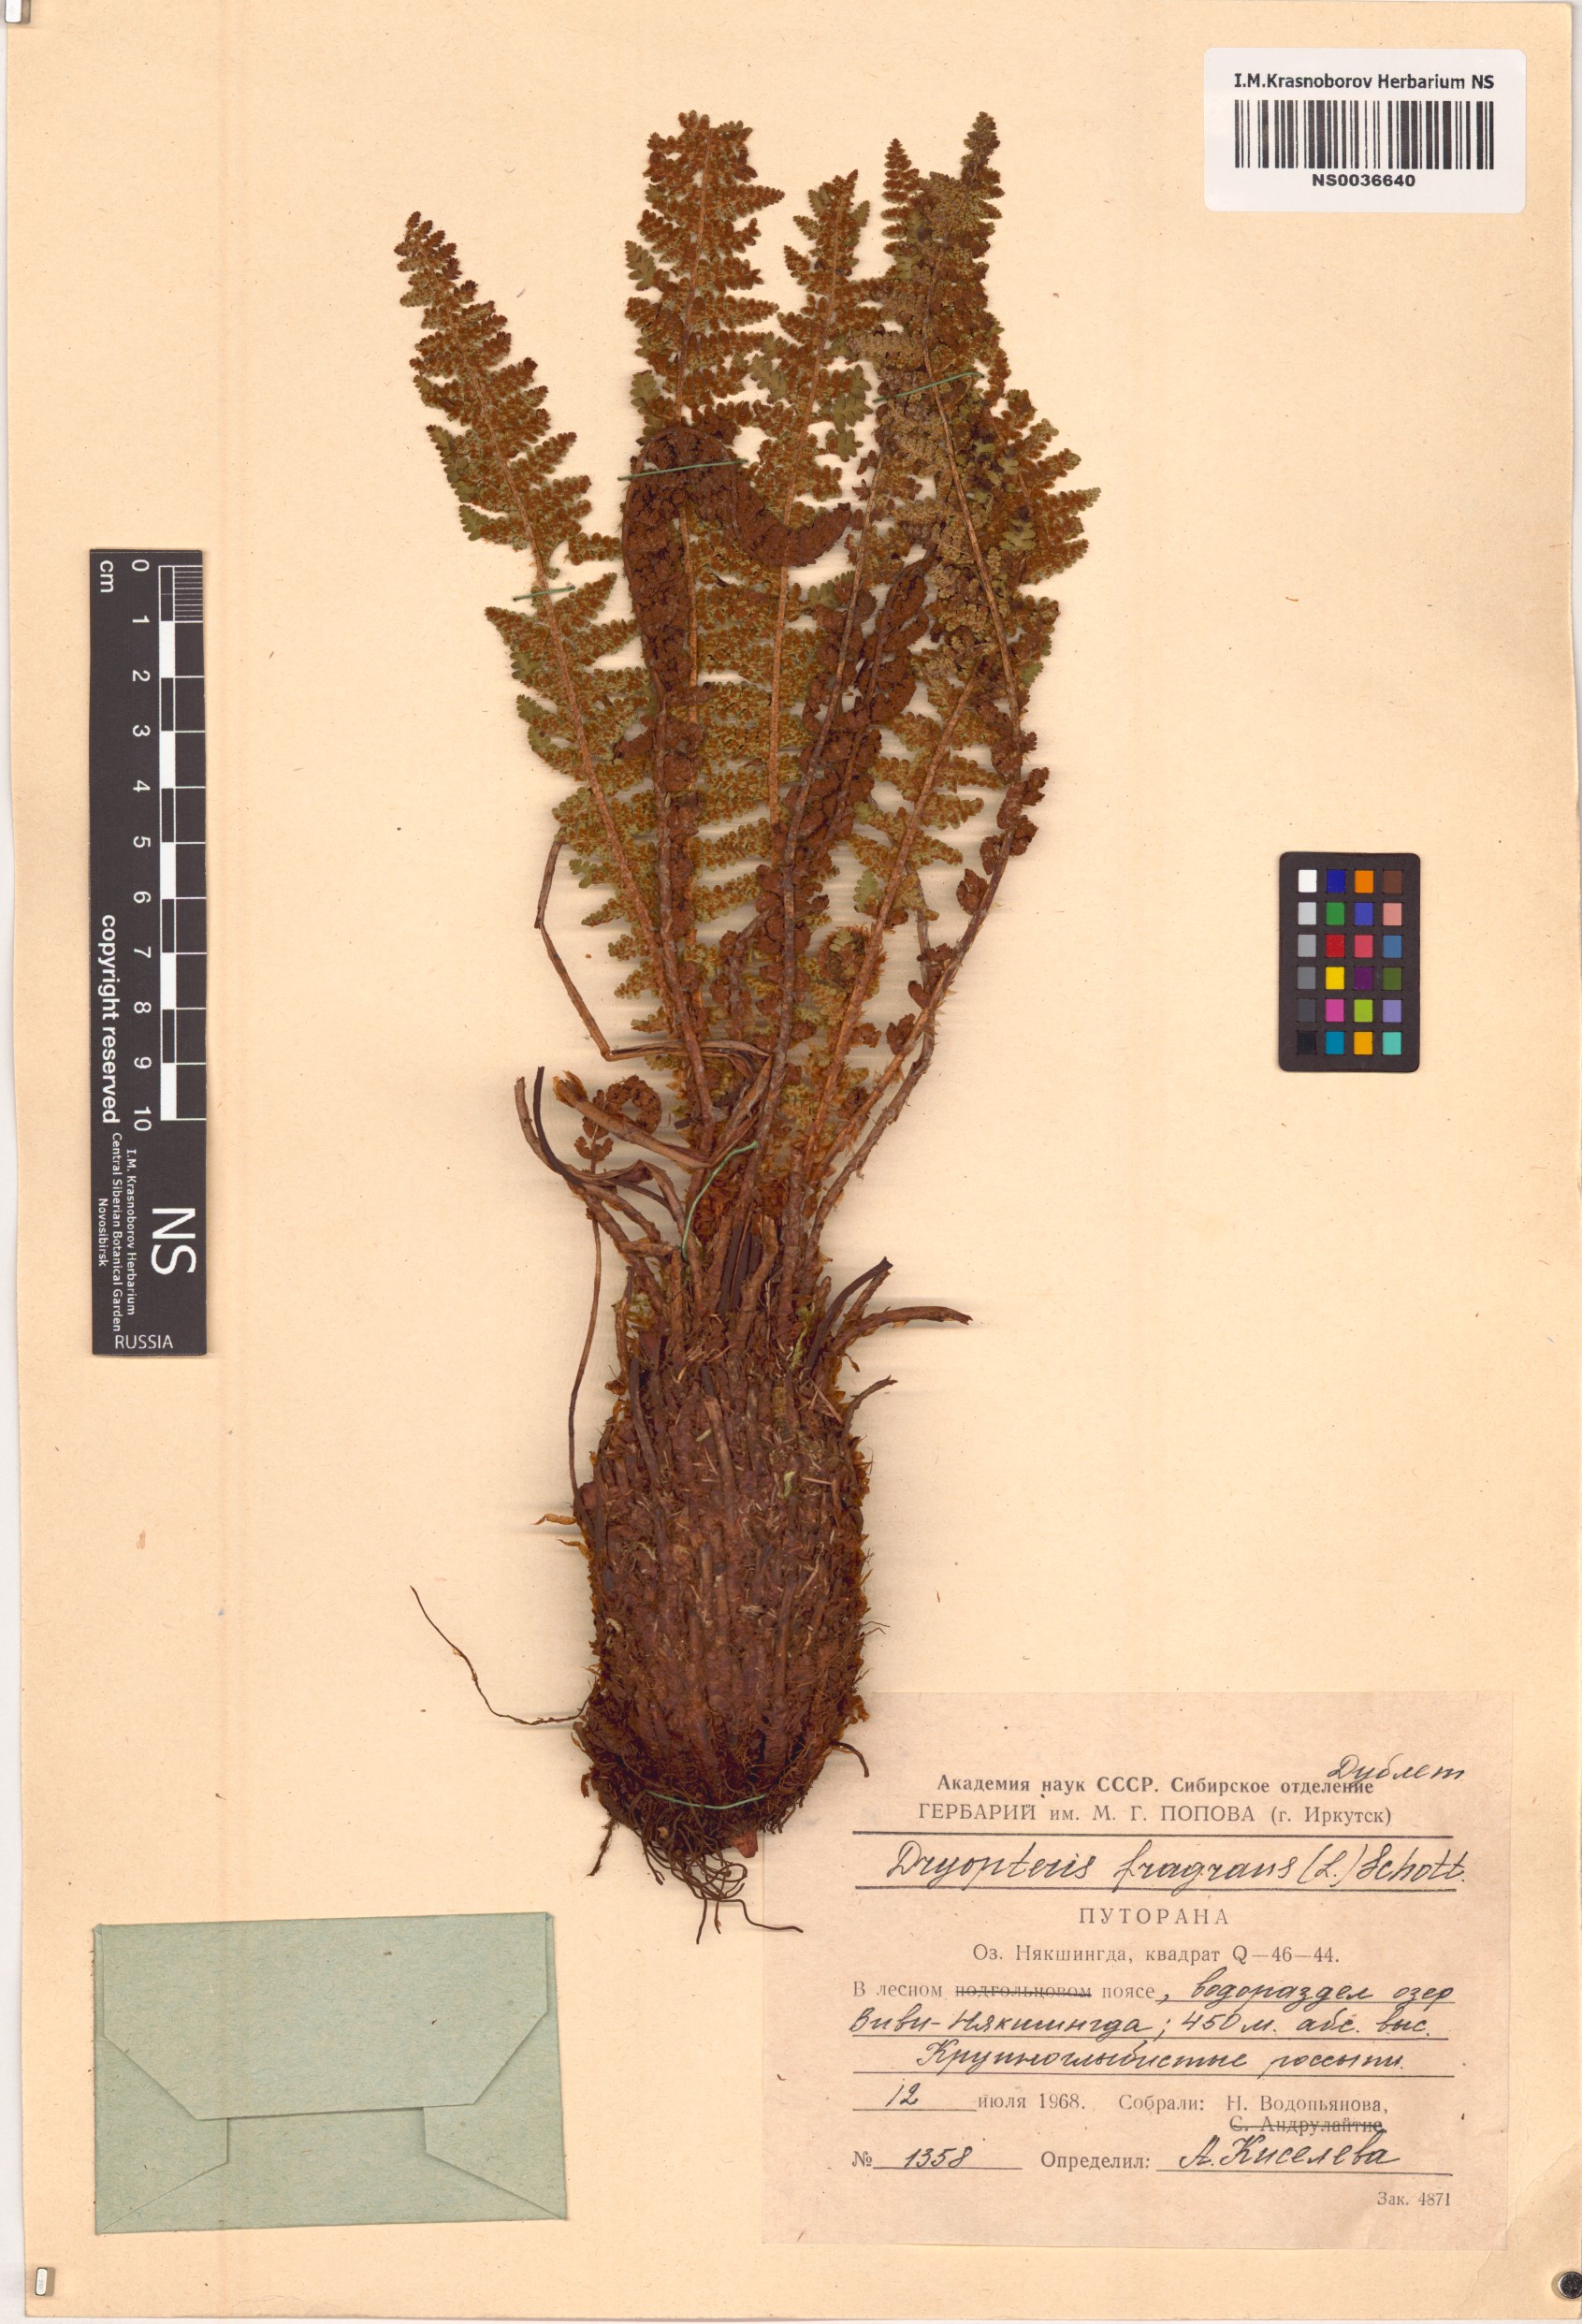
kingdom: Plantae
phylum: Tracheophyta
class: Polypodiopsida
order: Polypodiales
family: Dryopteridaceae
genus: Dryopteris
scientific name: Dryopteris fragrans
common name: Fragrant wood fern
